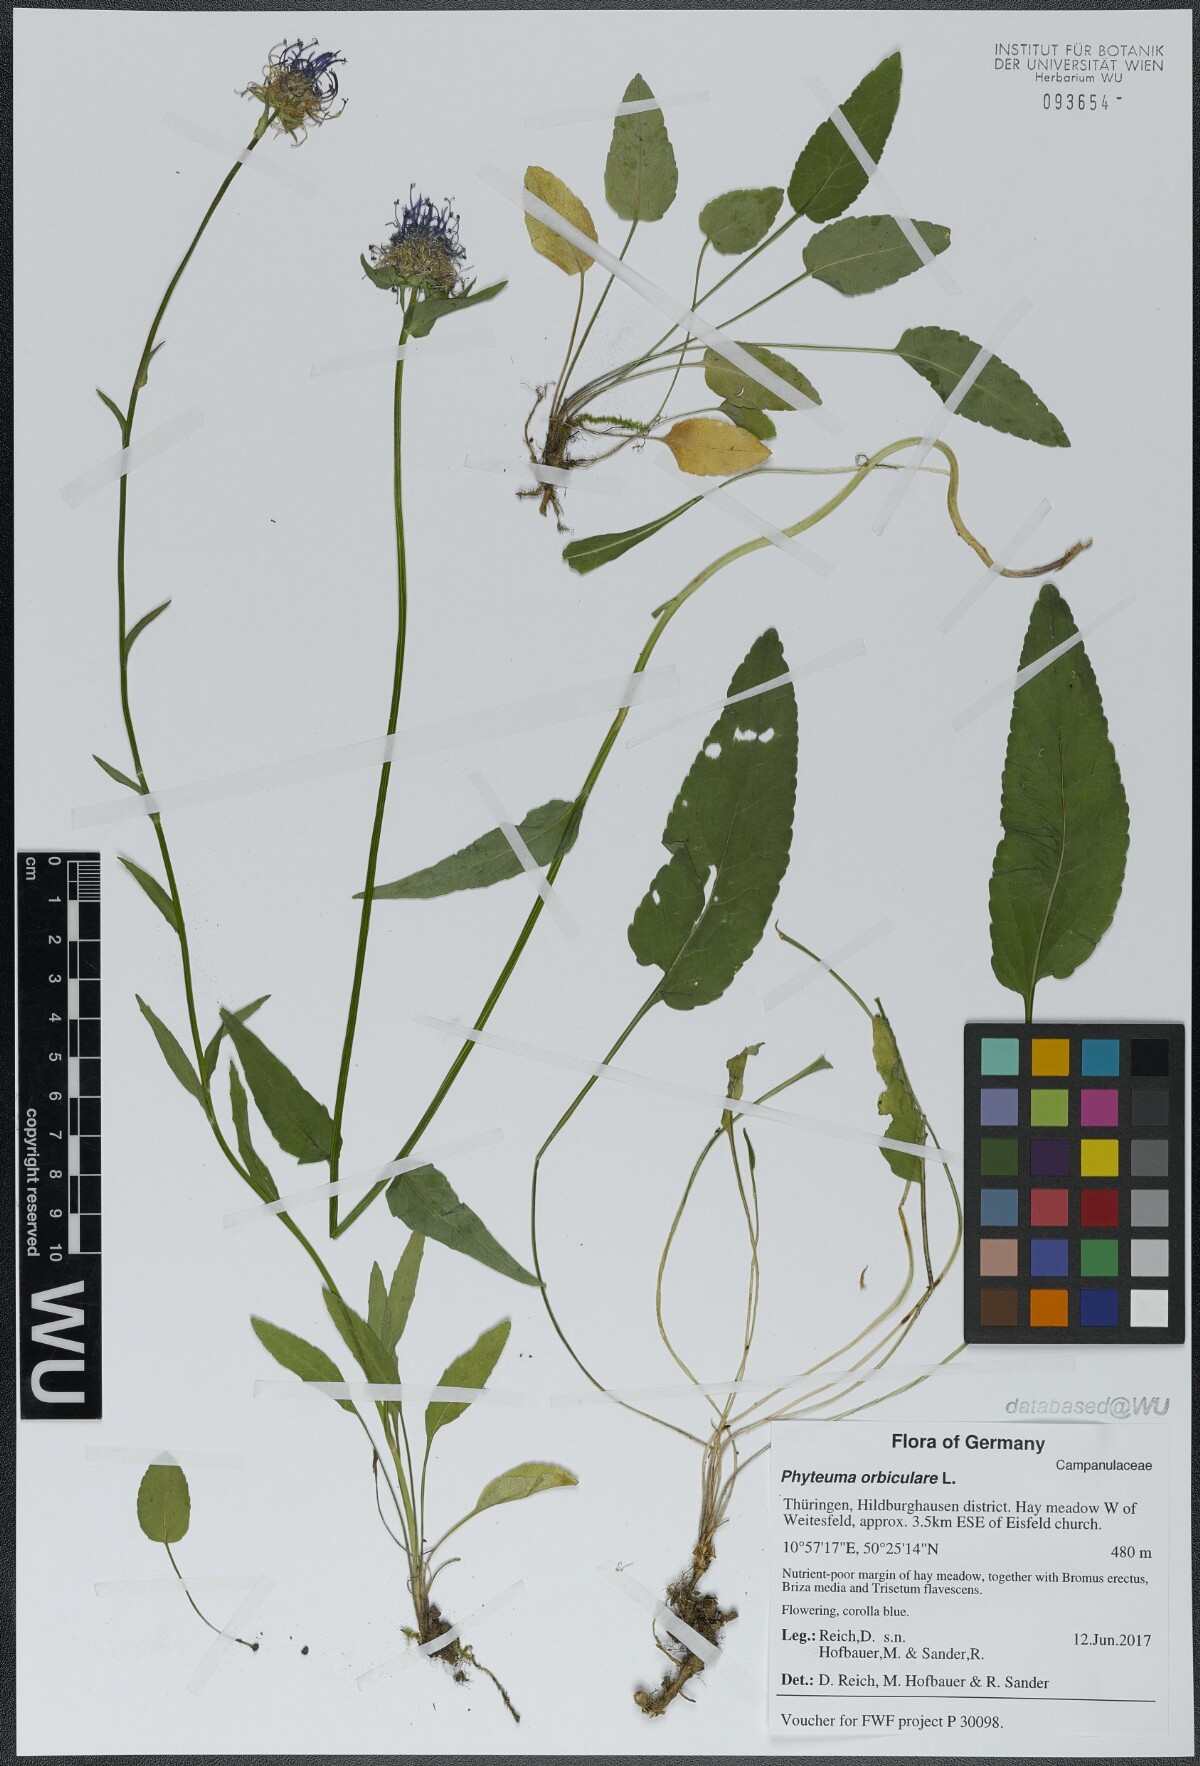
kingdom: Plantae
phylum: Tracheophyta
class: Magnoliopsida
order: Asterales
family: Campanulaceae
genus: Phyteuma
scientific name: Phyteuma orbiculare
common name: Round-headed rampion
